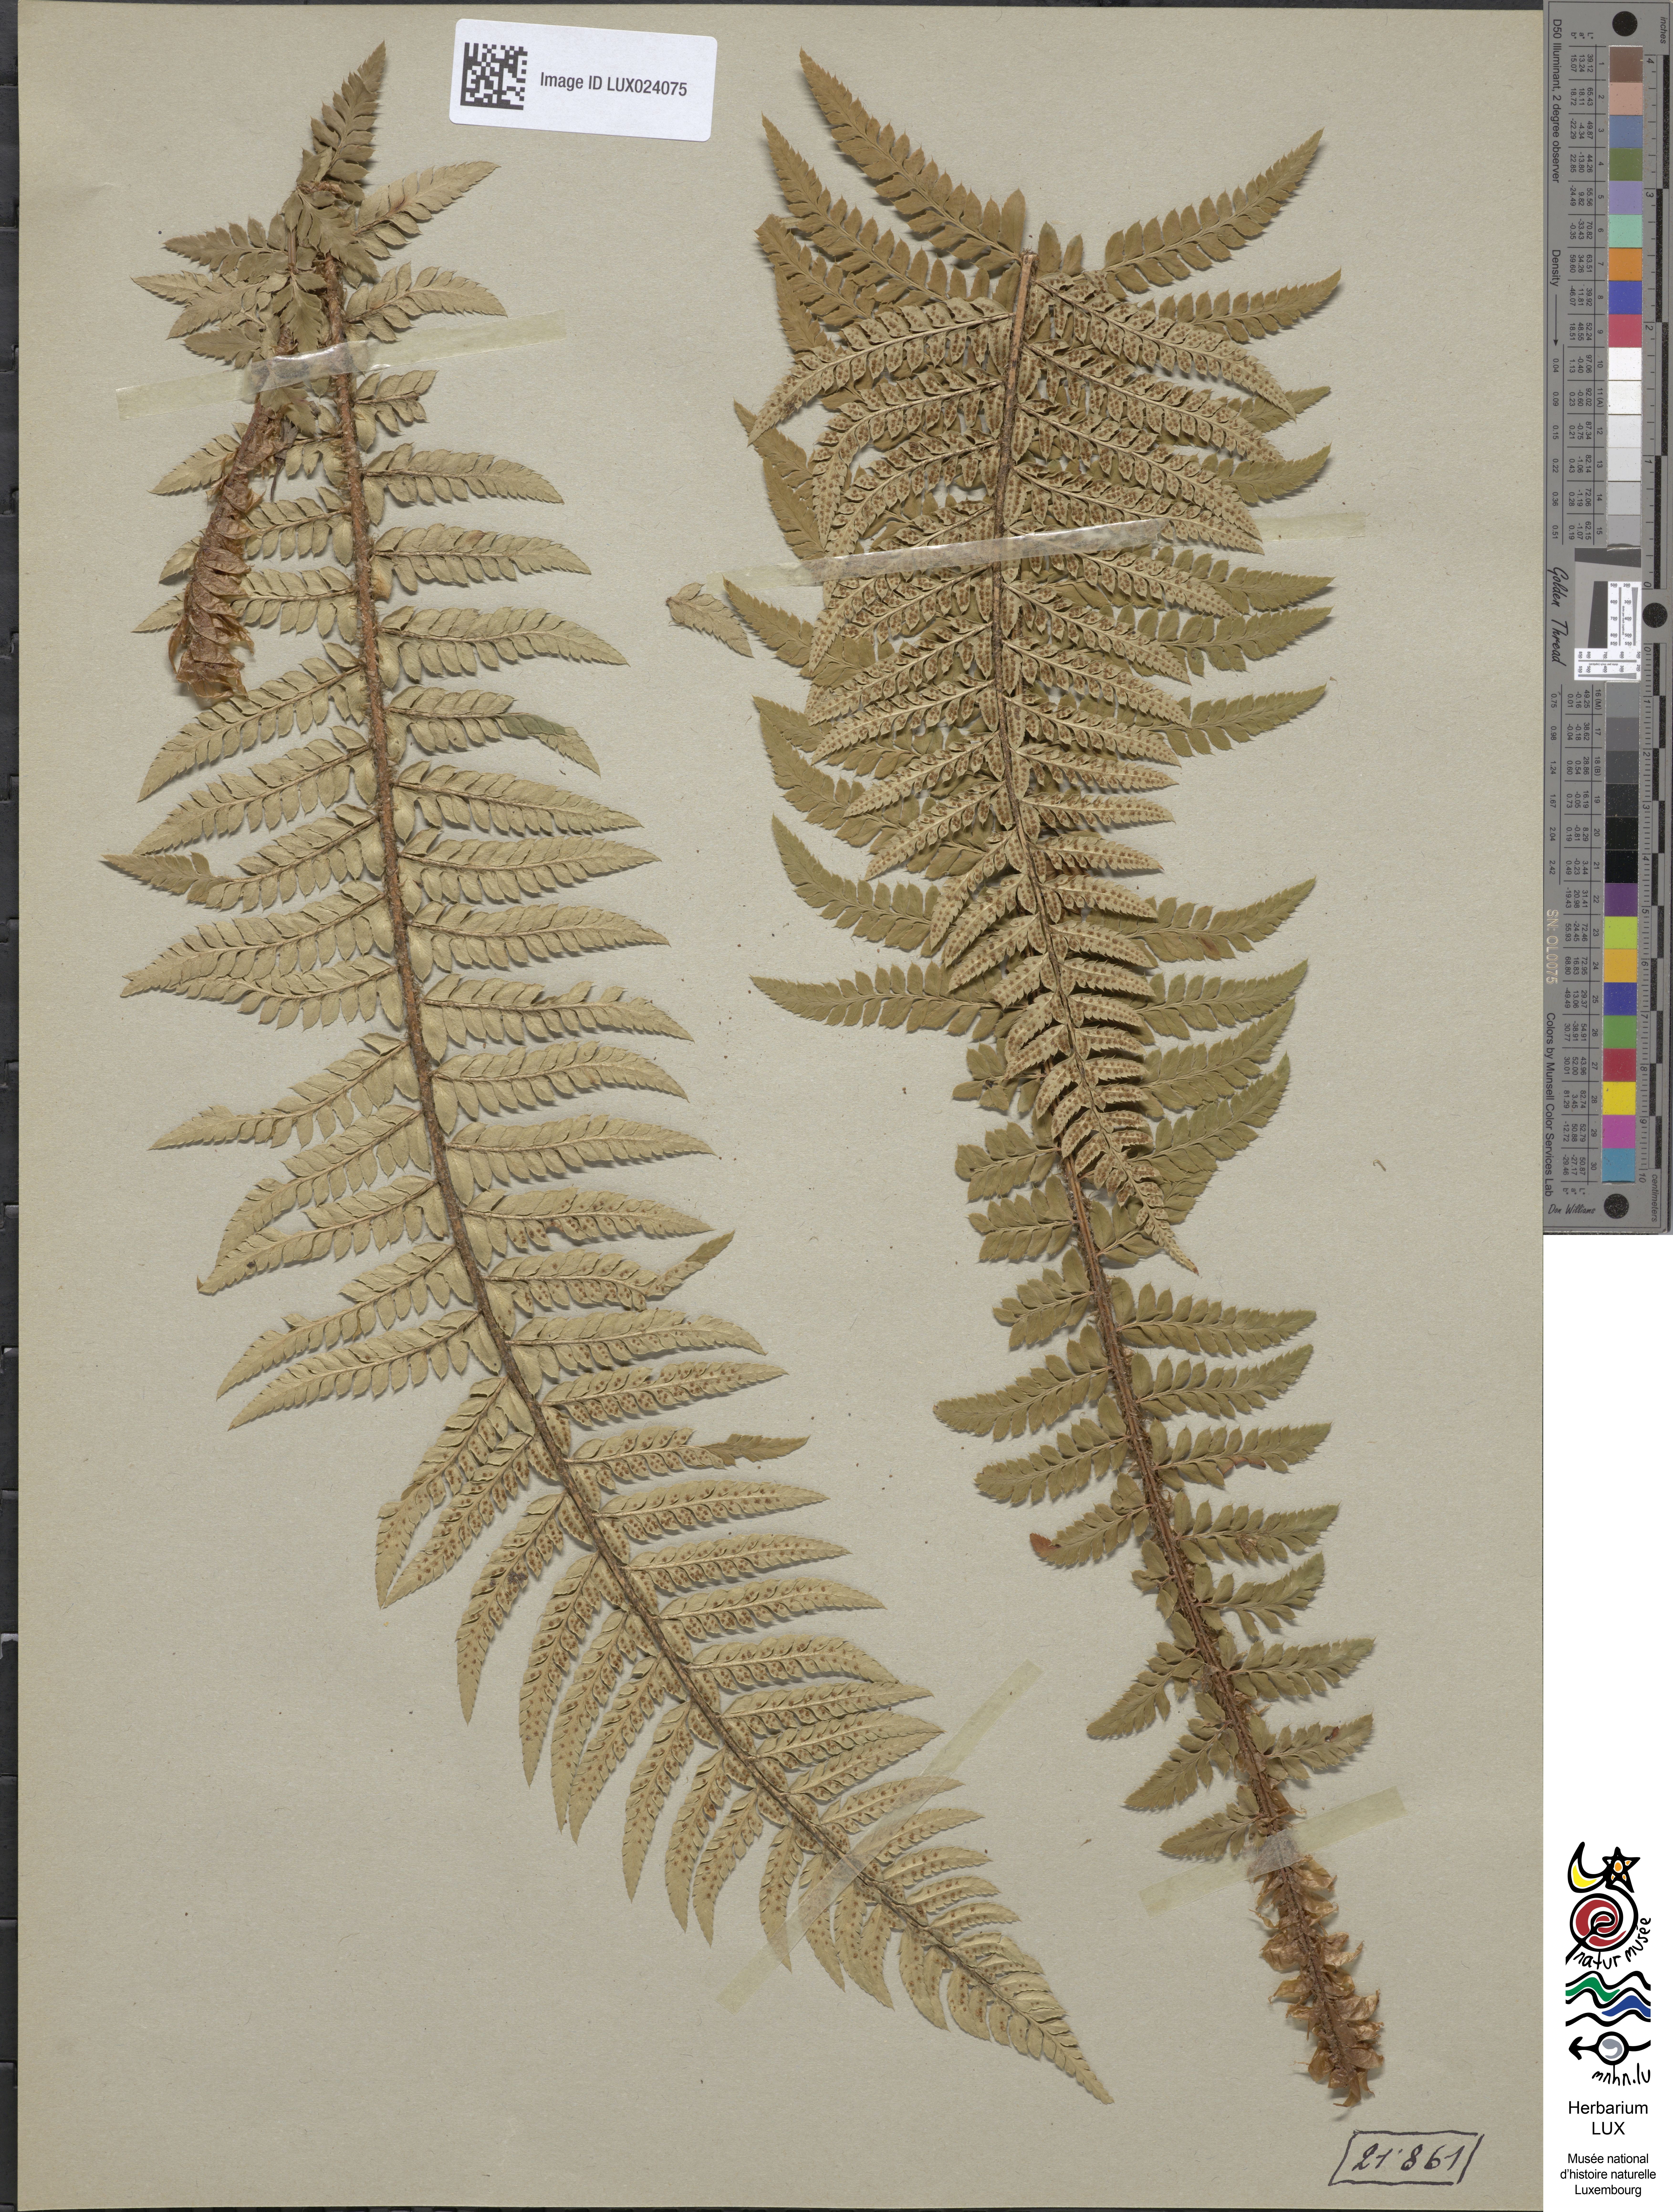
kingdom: Plantae
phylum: Tracheophyta
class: Polypodiopsida
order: Polypodiales
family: Dryopteridaceae
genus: Polystichum
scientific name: Polystichum aculeatum
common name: Hard shield-fern
